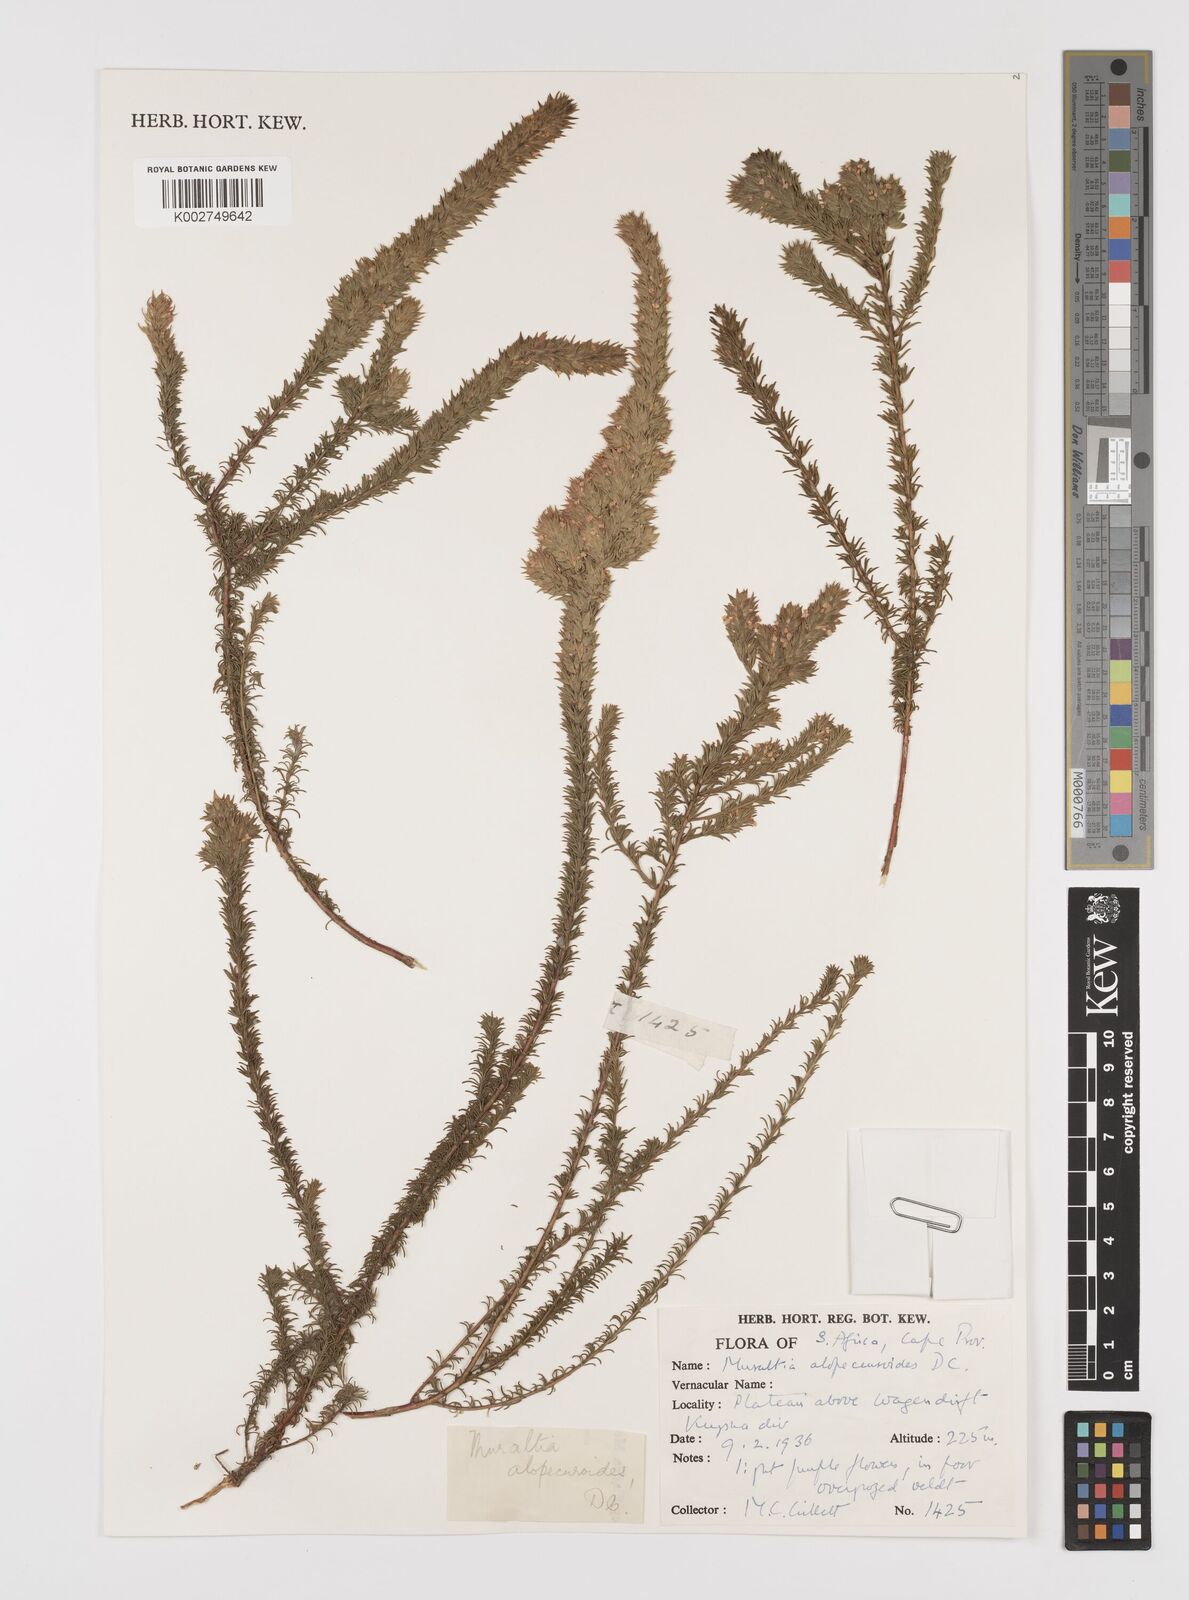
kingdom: Plantae
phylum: Tracheophyta
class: Magnoliopsida
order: Fabales
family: Polygalaceae
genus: Muraltia
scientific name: Muraltia alopecuroides
